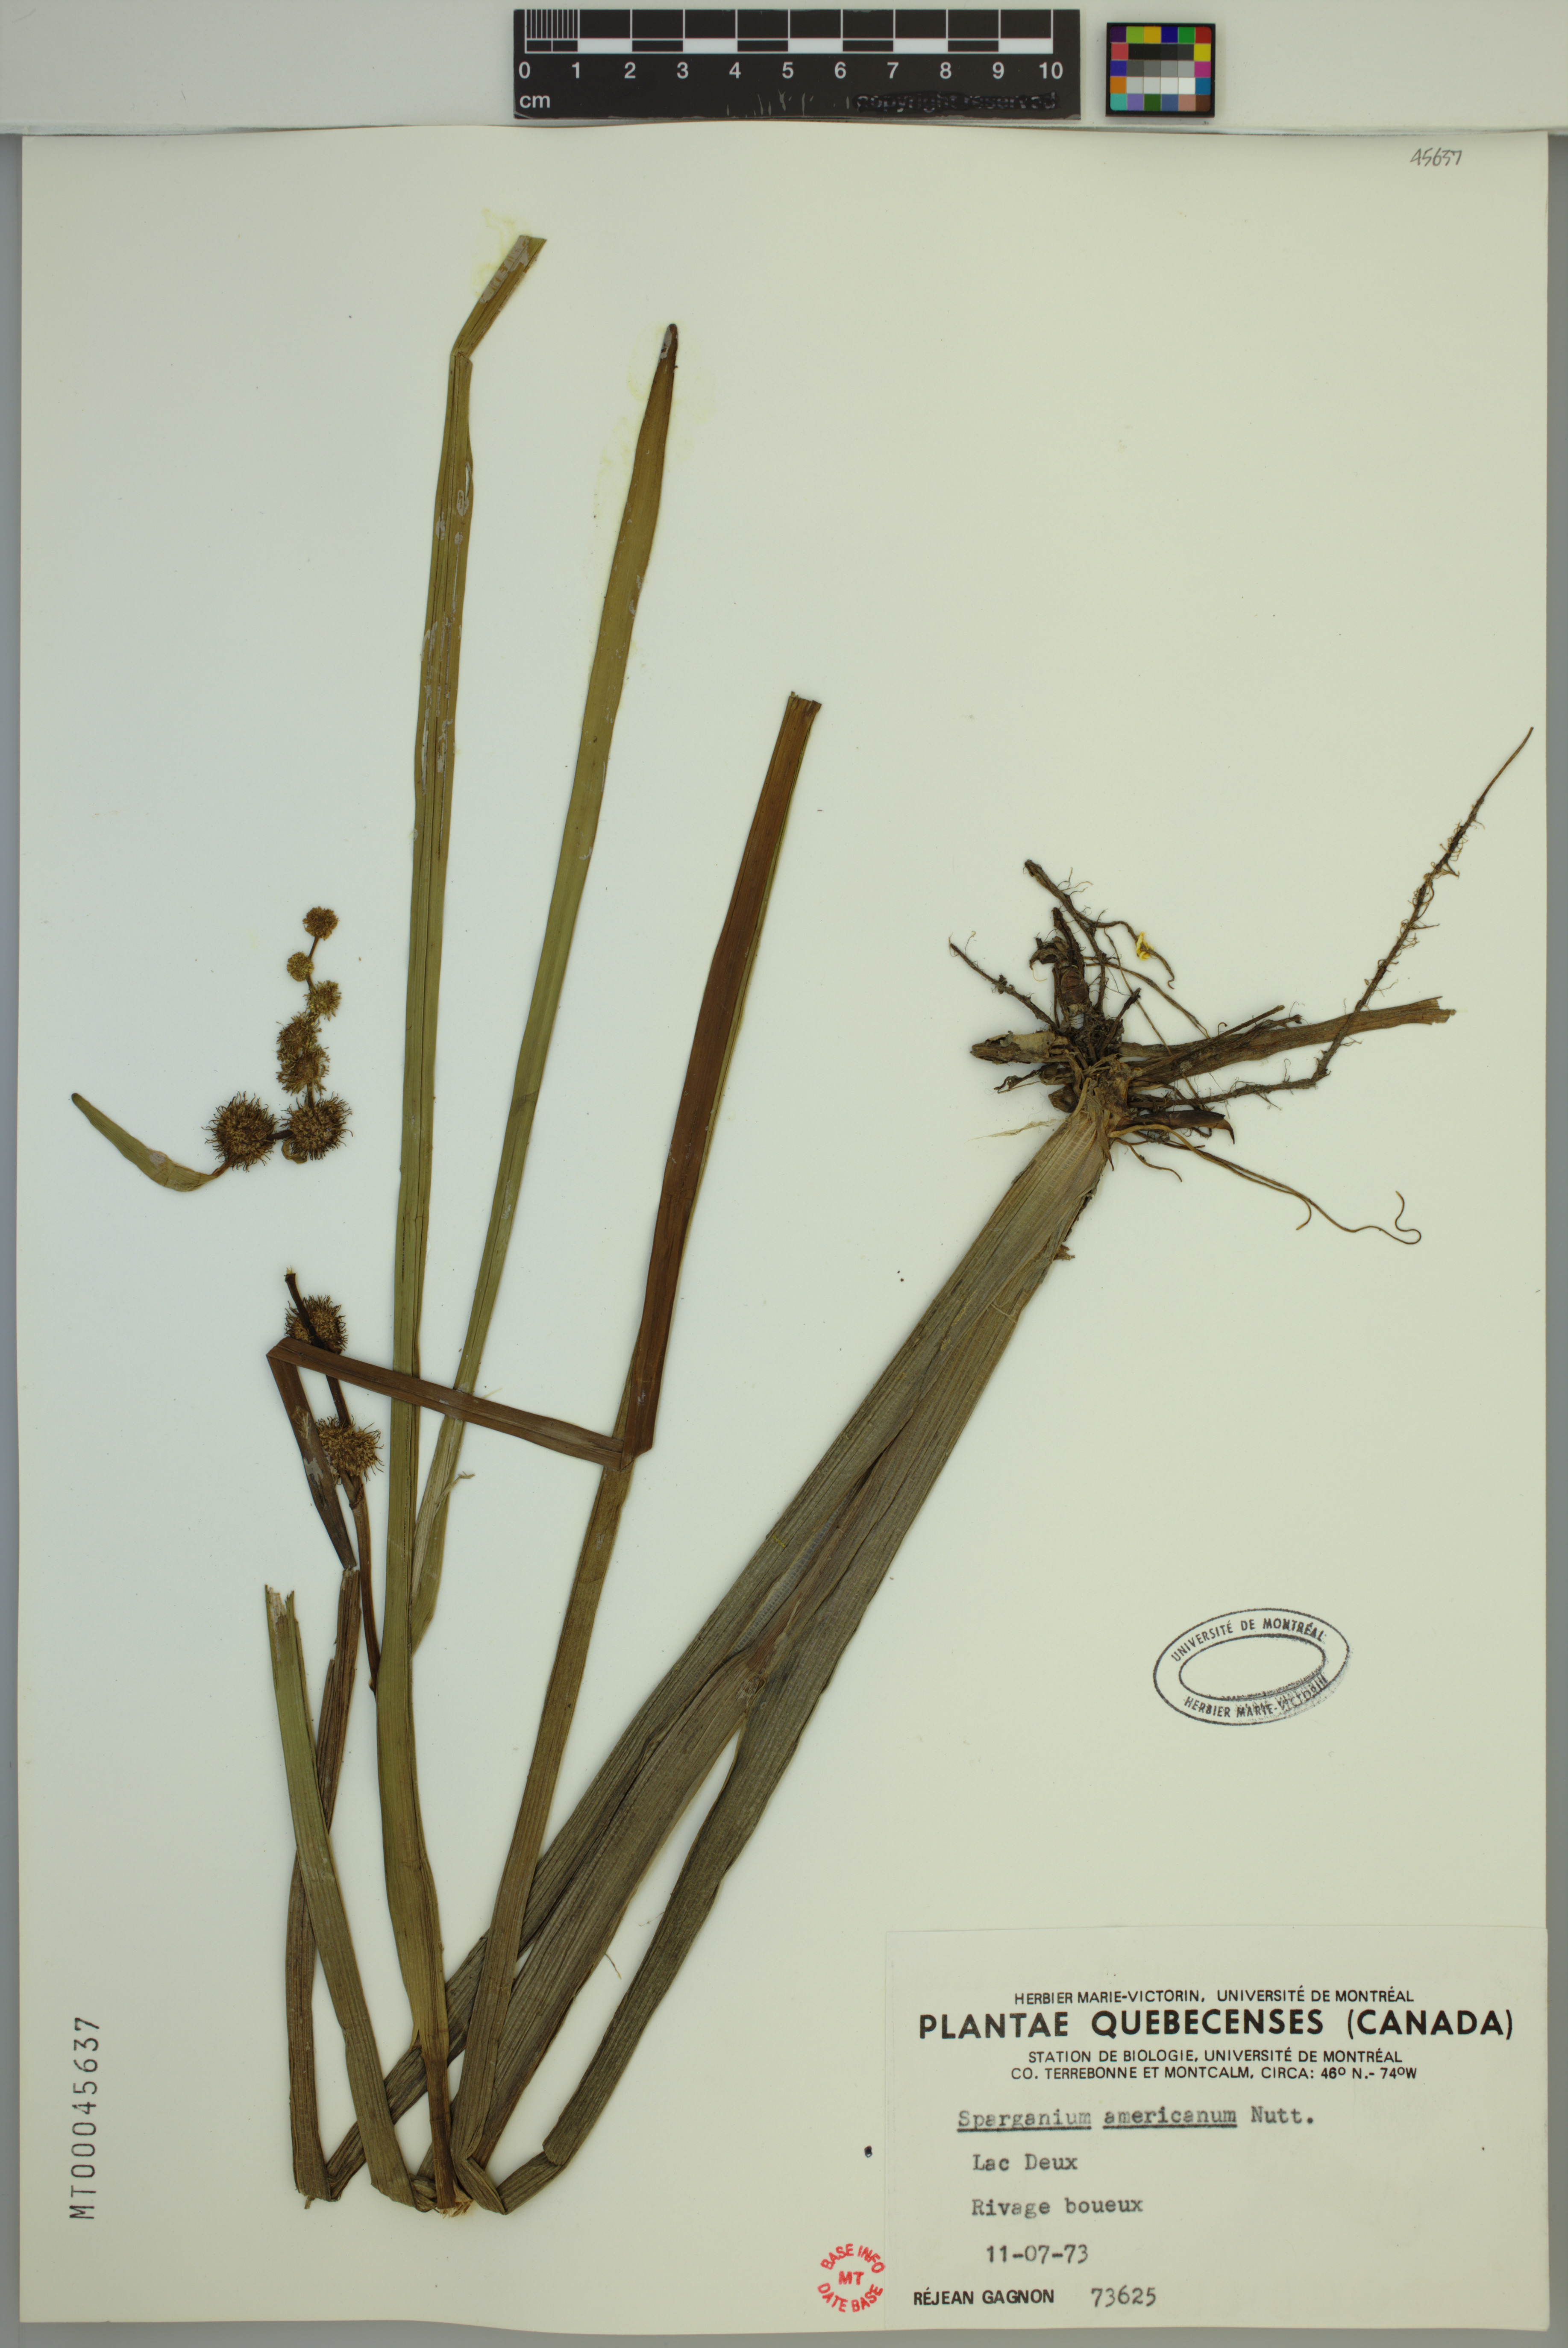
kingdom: Plantae
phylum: Tracheophyta
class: Liliopsida
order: Poales
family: Typhaceae
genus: Sparganium
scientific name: Sparganium americanum
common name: American burreed
